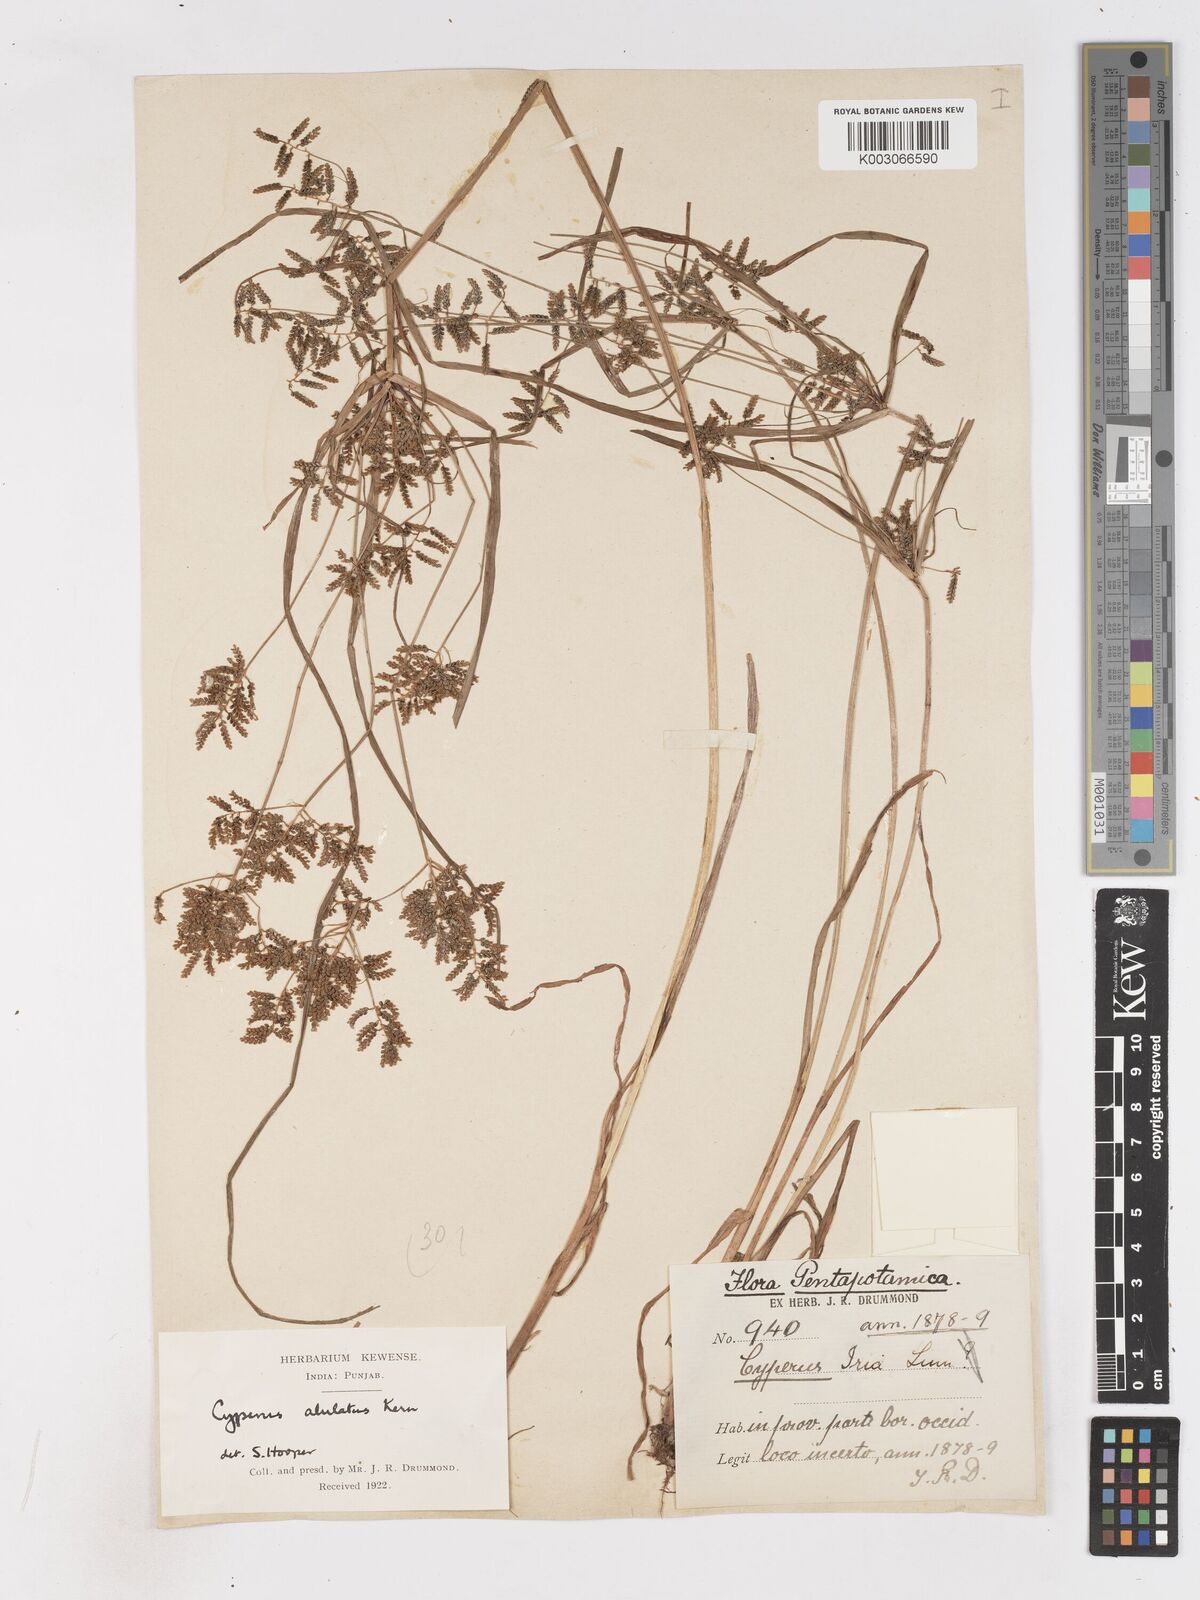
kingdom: Plantae
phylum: Tracheophyta
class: Liliopsida
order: Poales
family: Cyperaceae
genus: Cyperus
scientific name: Cyperus alulatus
